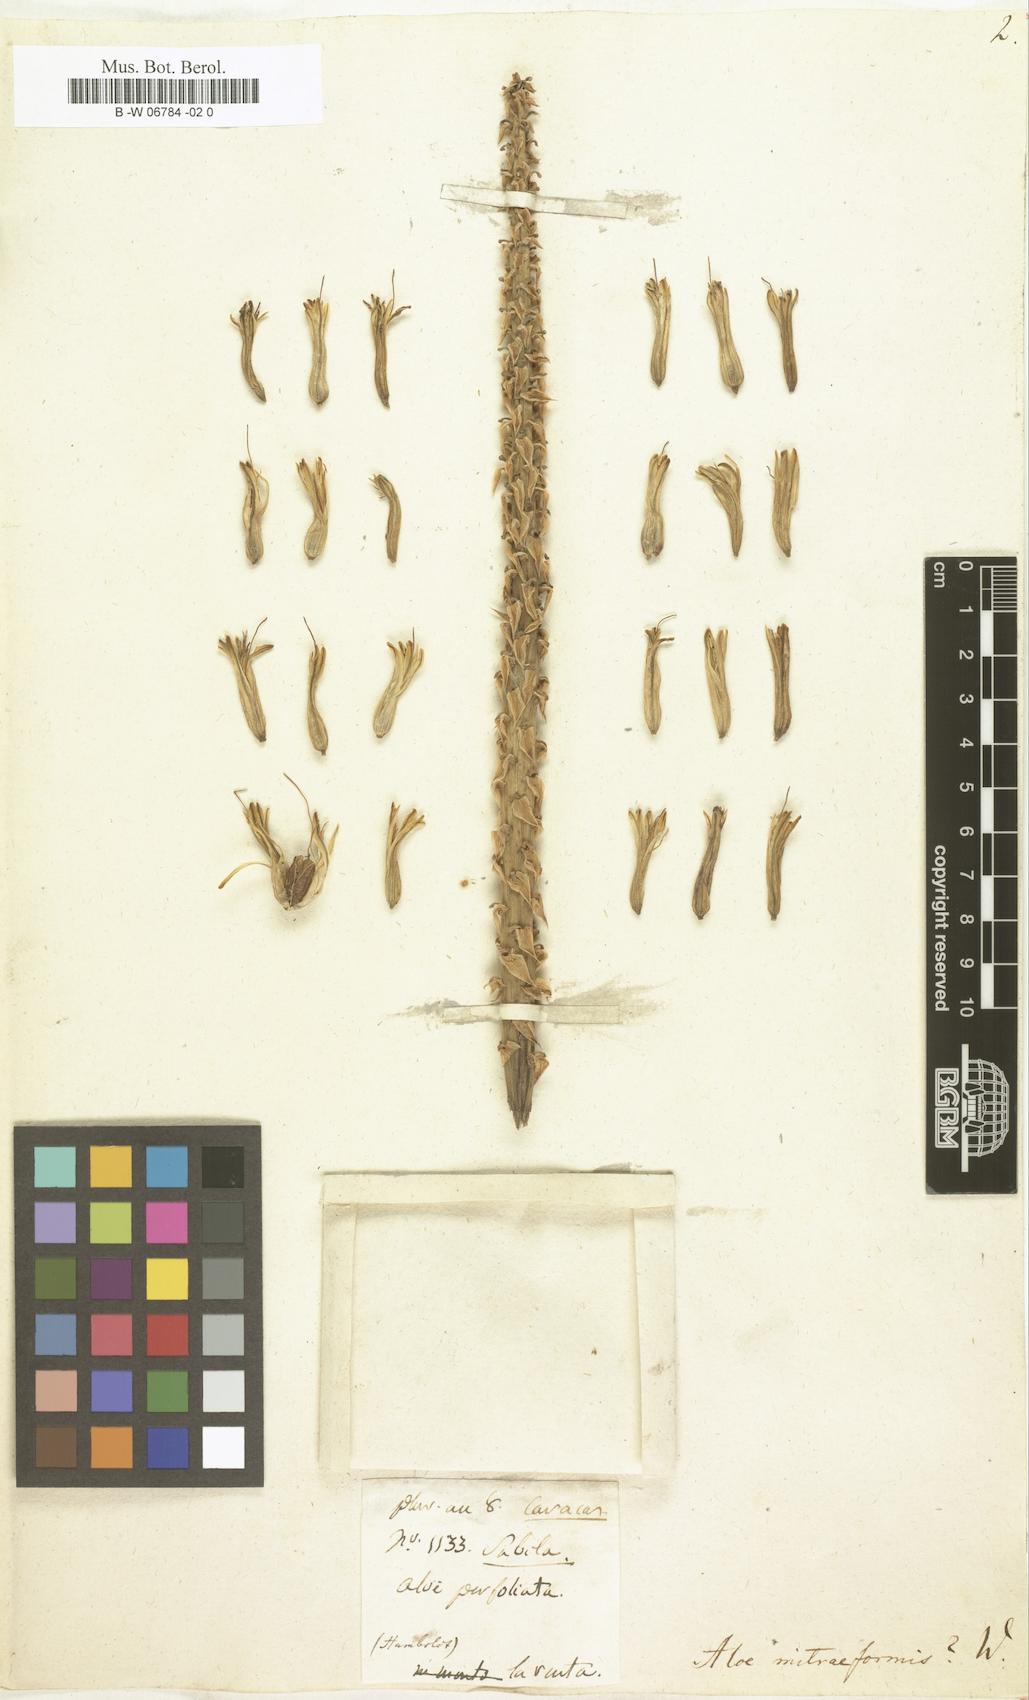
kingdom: Plantae
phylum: Tracheophyta
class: Liliopsida
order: Asparagales
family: Asphodelaceae
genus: Aloe
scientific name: Aloe mitraeformis
